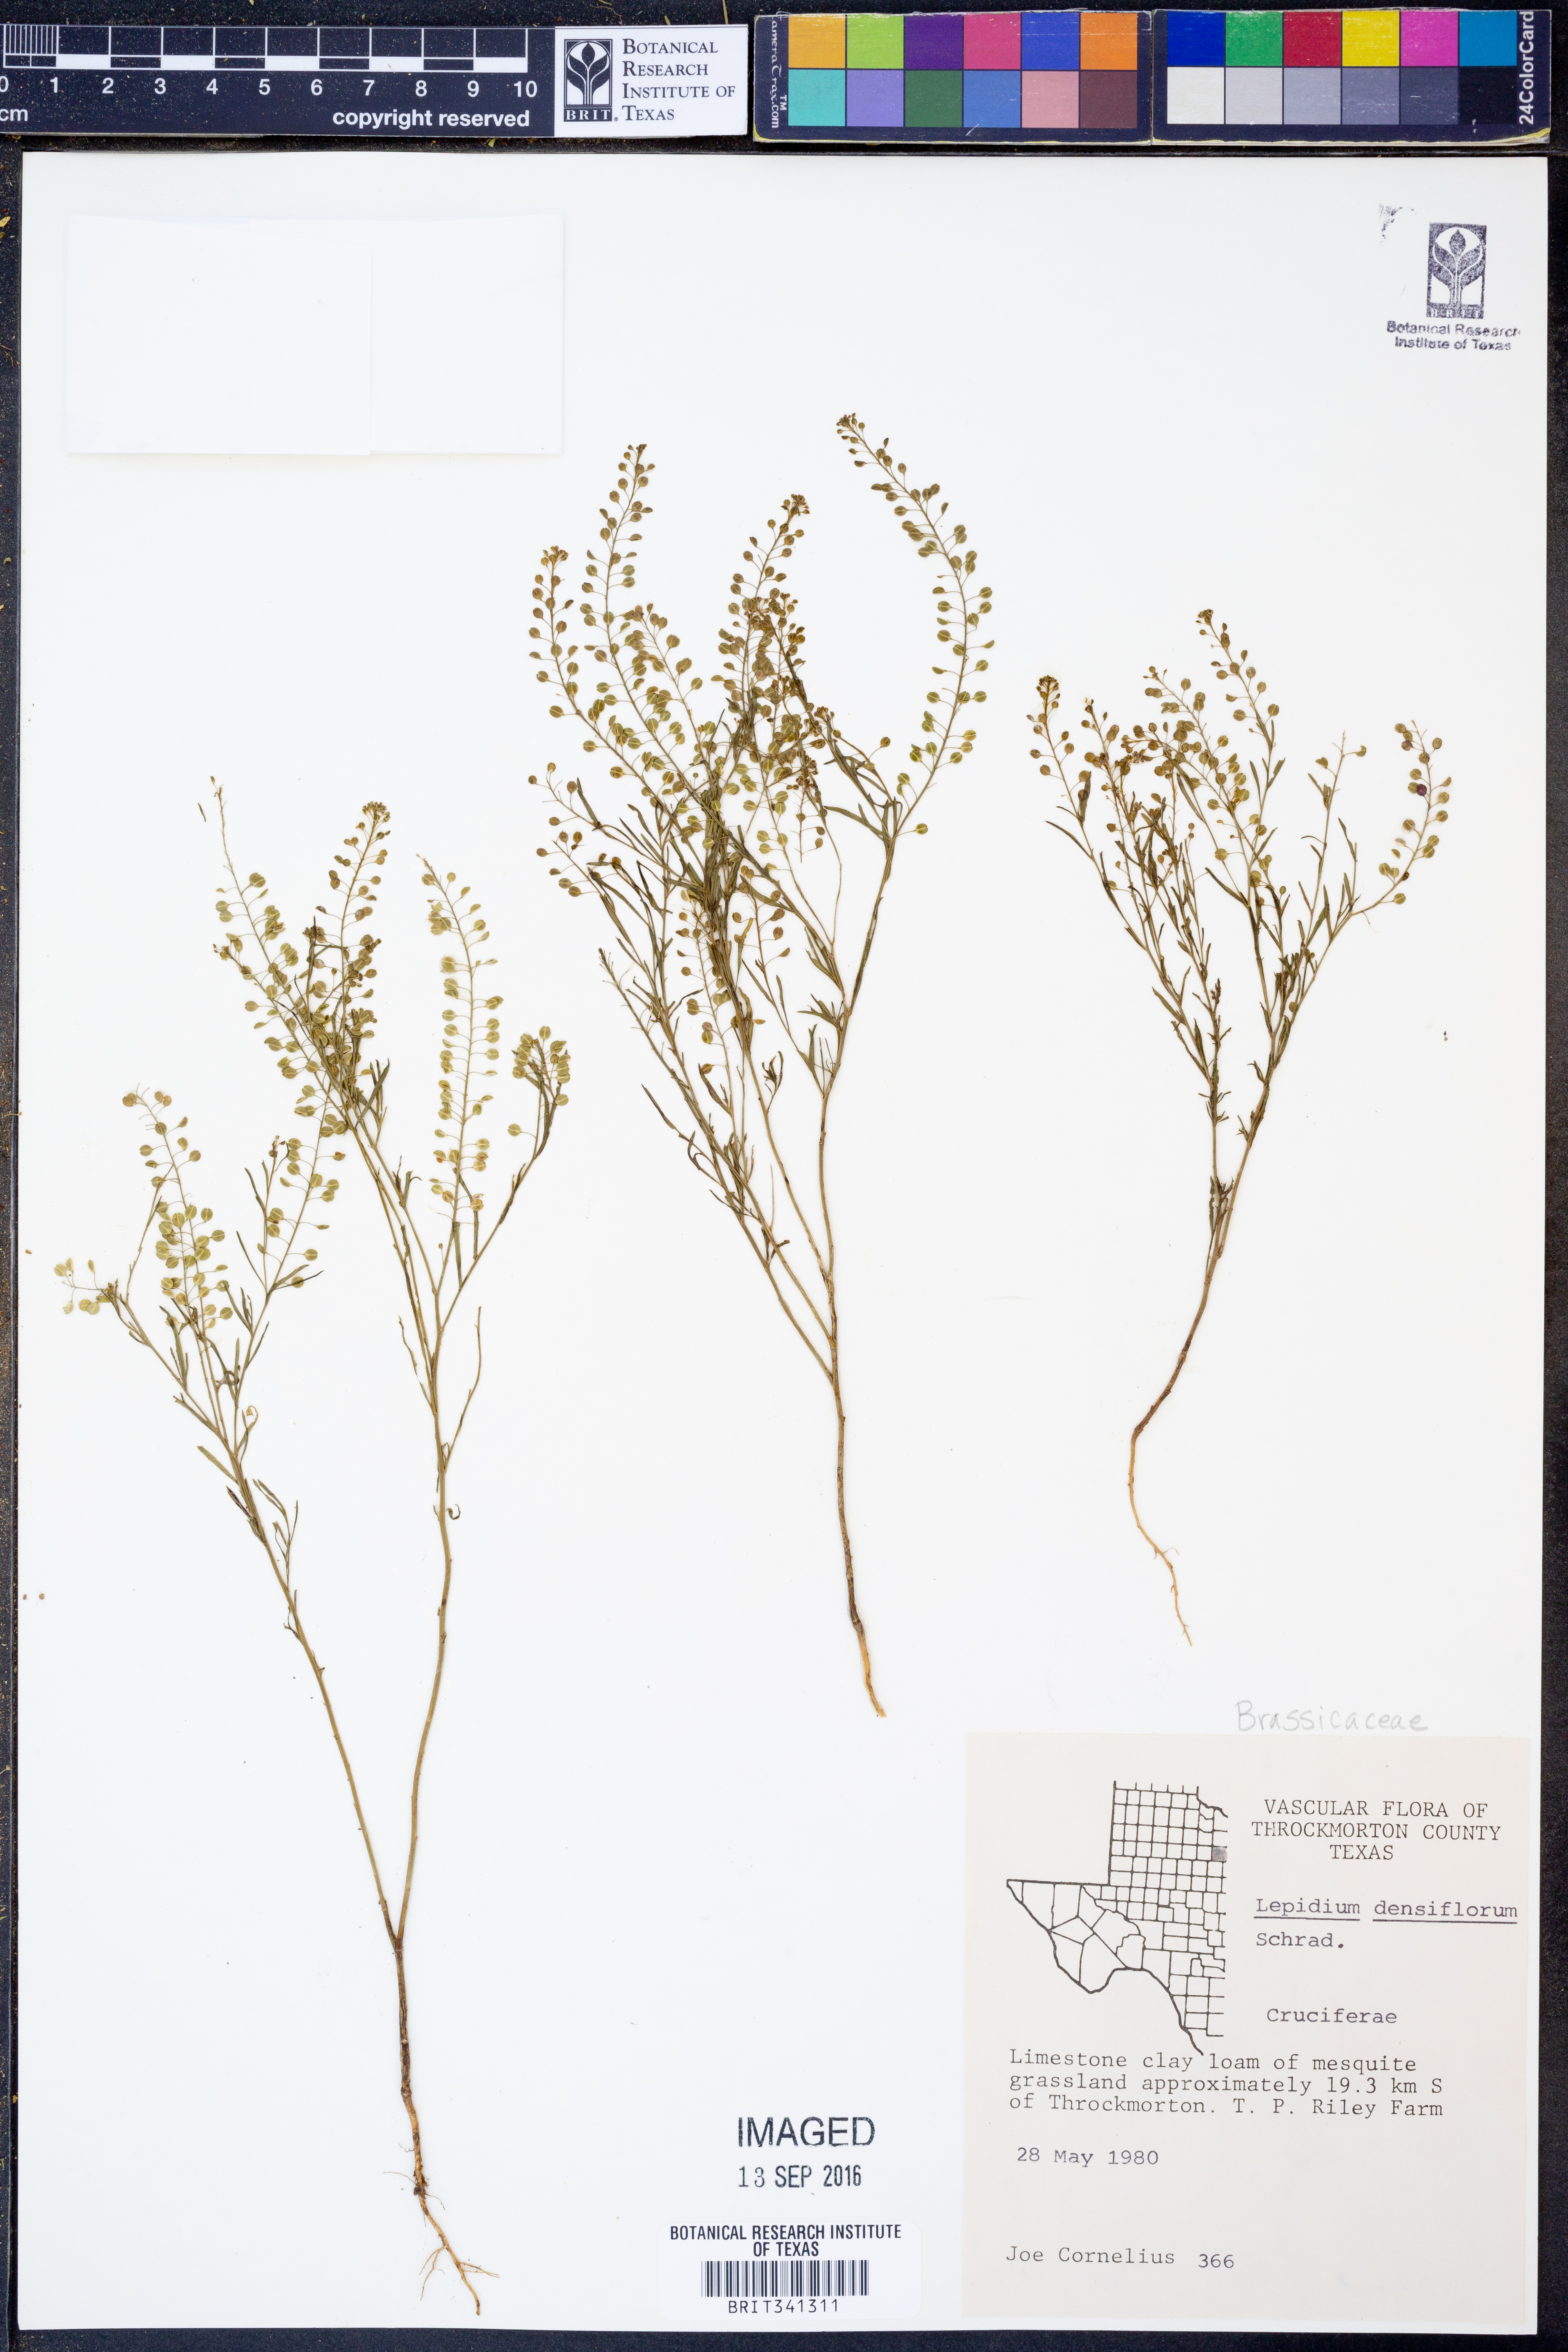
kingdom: Plantae
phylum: Tracheophyta
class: Magnoliopsida
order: Brassicales
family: Brassicaceae
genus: Lepidium
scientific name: Lepidium densiflorum
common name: Miner's pepperwort
